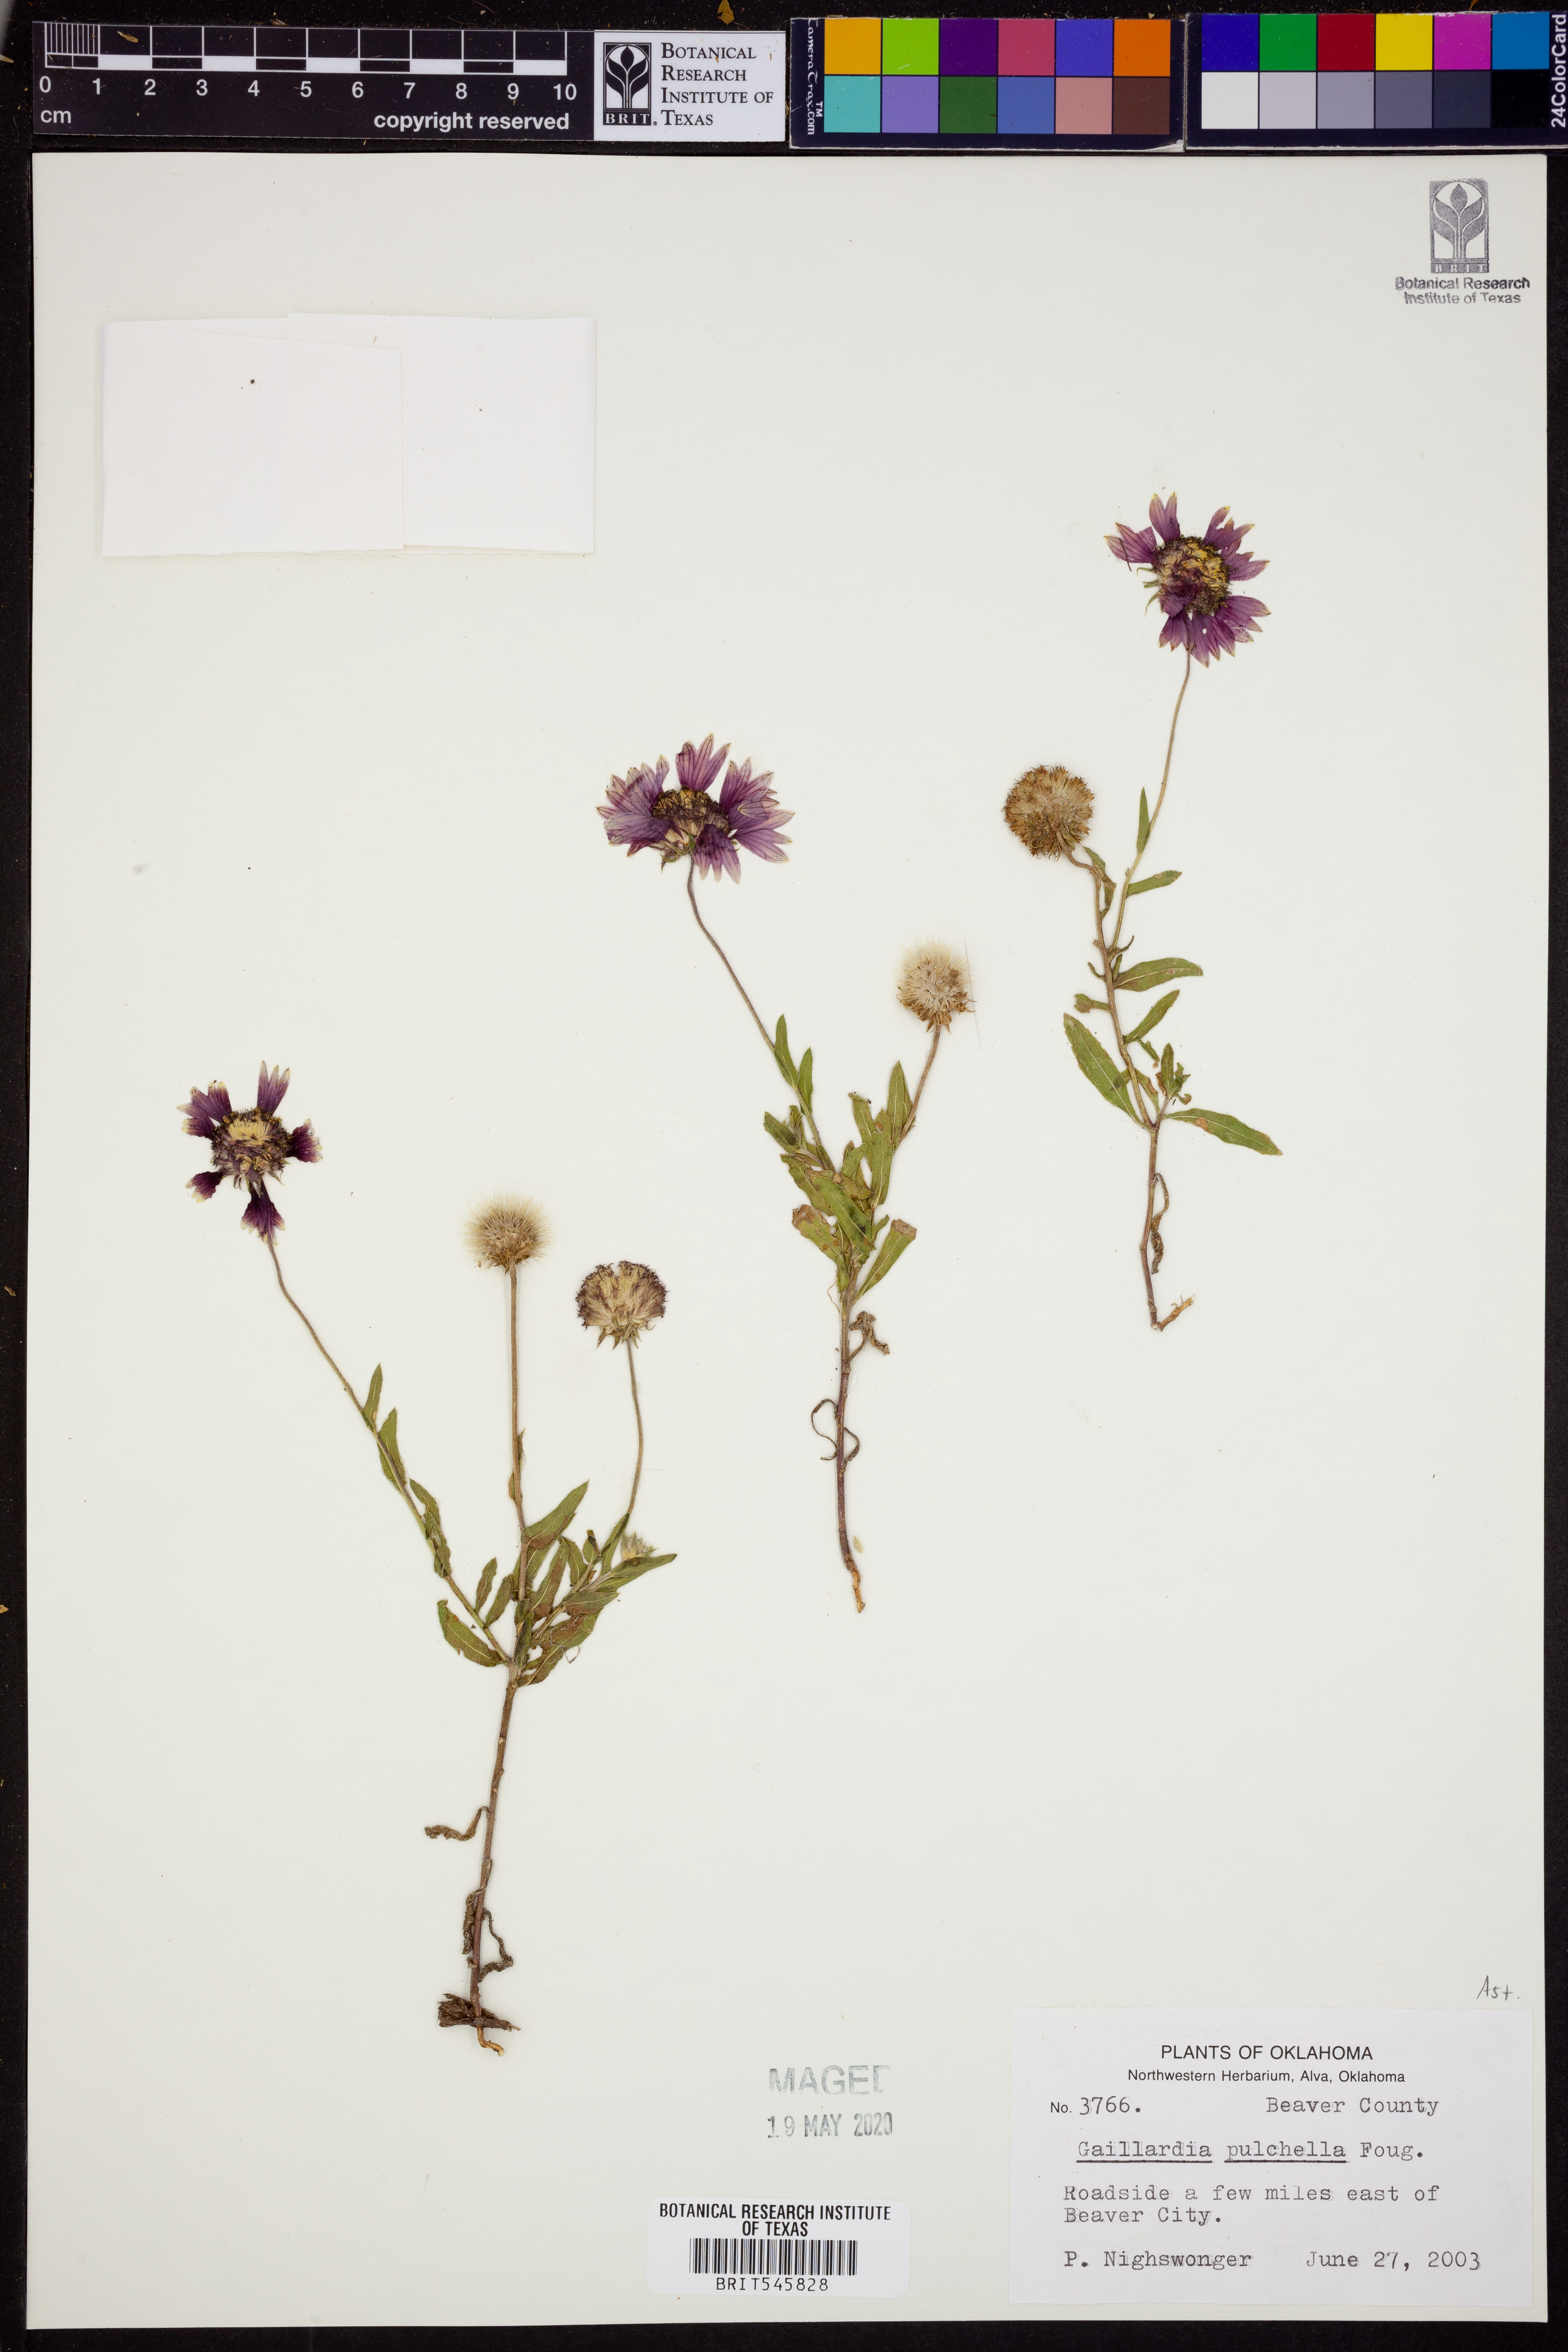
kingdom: Plantae
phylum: Tracheophyta
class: Magnoliopsida
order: Asterales
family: Asteraceae
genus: Gaillardia
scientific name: Gaillardia pulchella
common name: Firewheel
